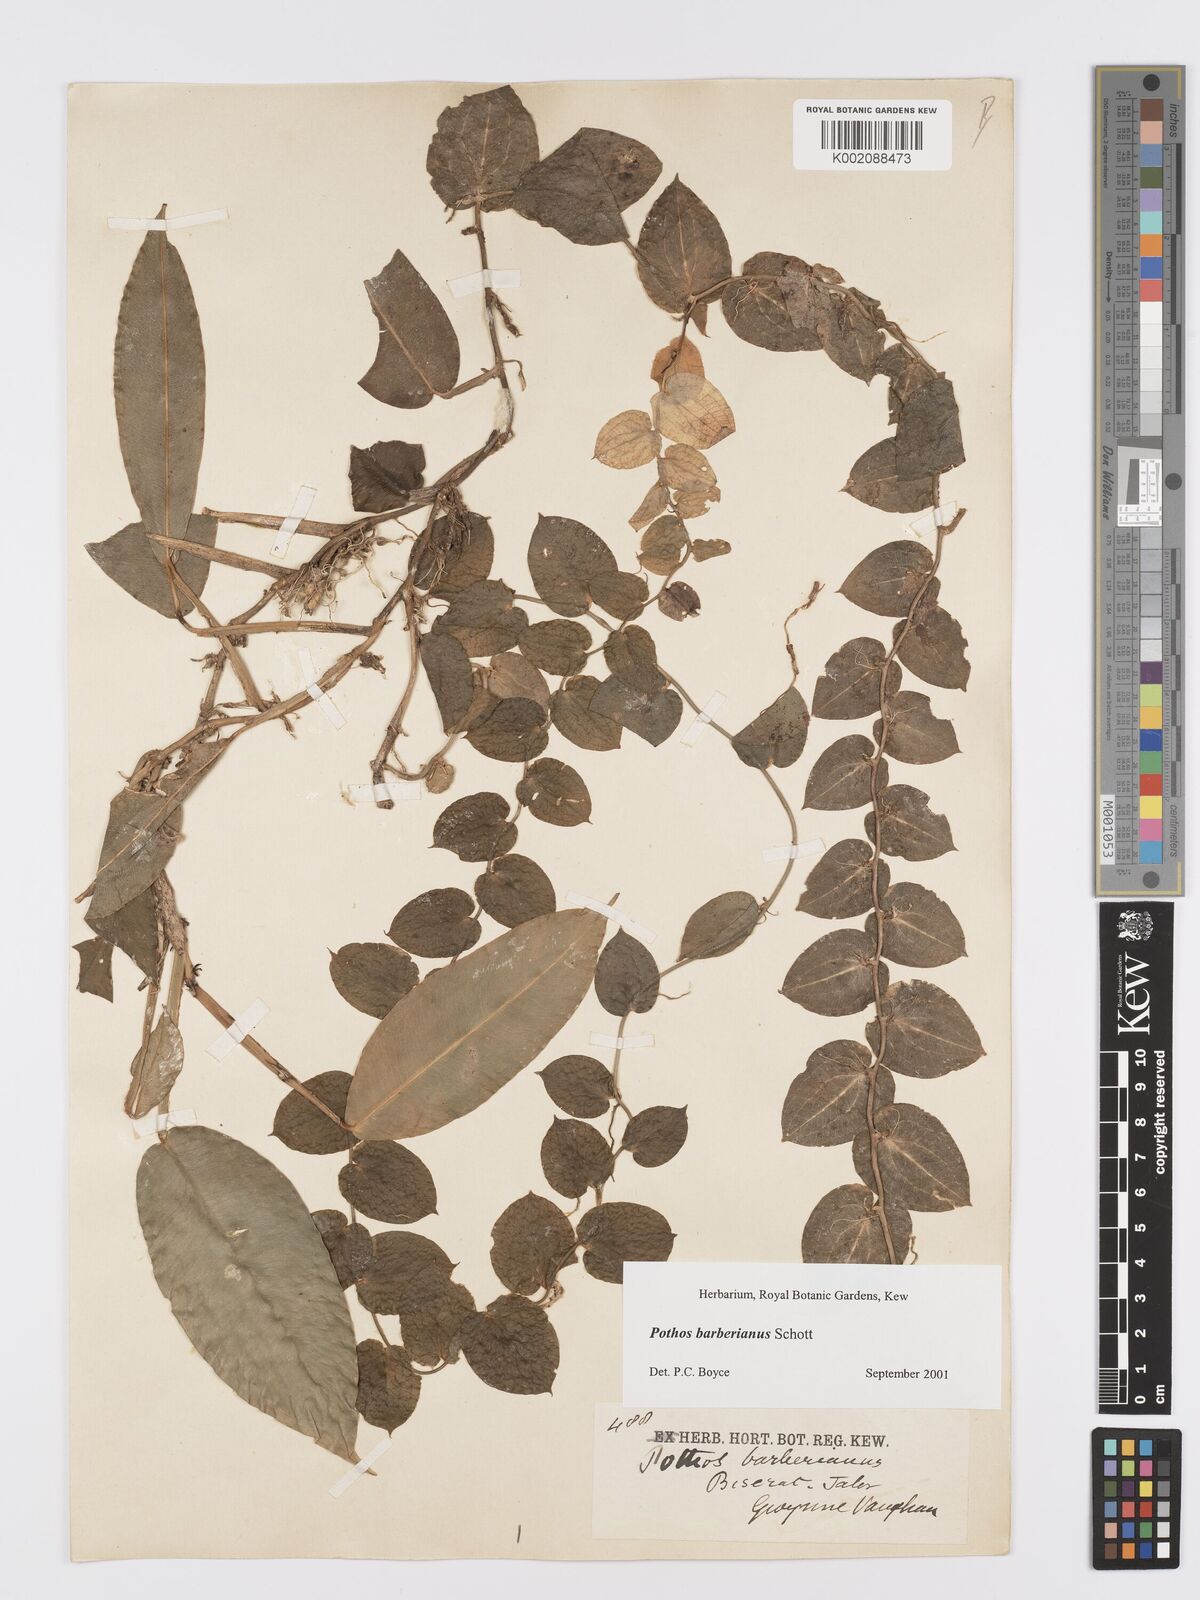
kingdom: Plantae
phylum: Tracheophyta
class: Liliopsida
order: Alismatales
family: Araceae
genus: Pothos
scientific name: Pothos barberianus
